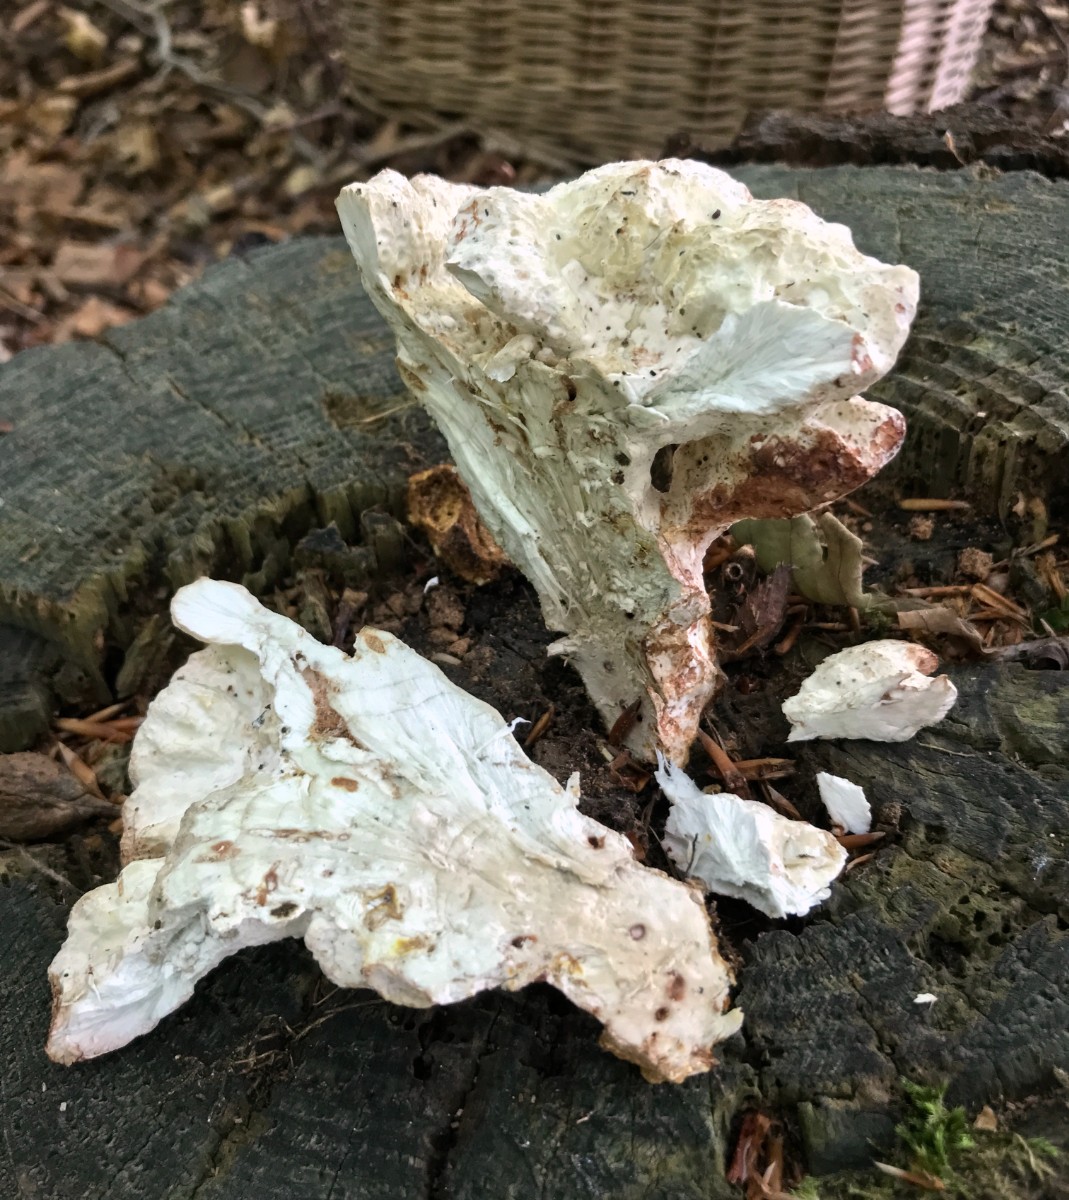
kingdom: Fungi
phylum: Basidiomycota
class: Agaricomycetes
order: Polyporales
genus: Calcipostia
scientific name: Calcipostia guttulata
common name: dråbe-kødporesvamp
